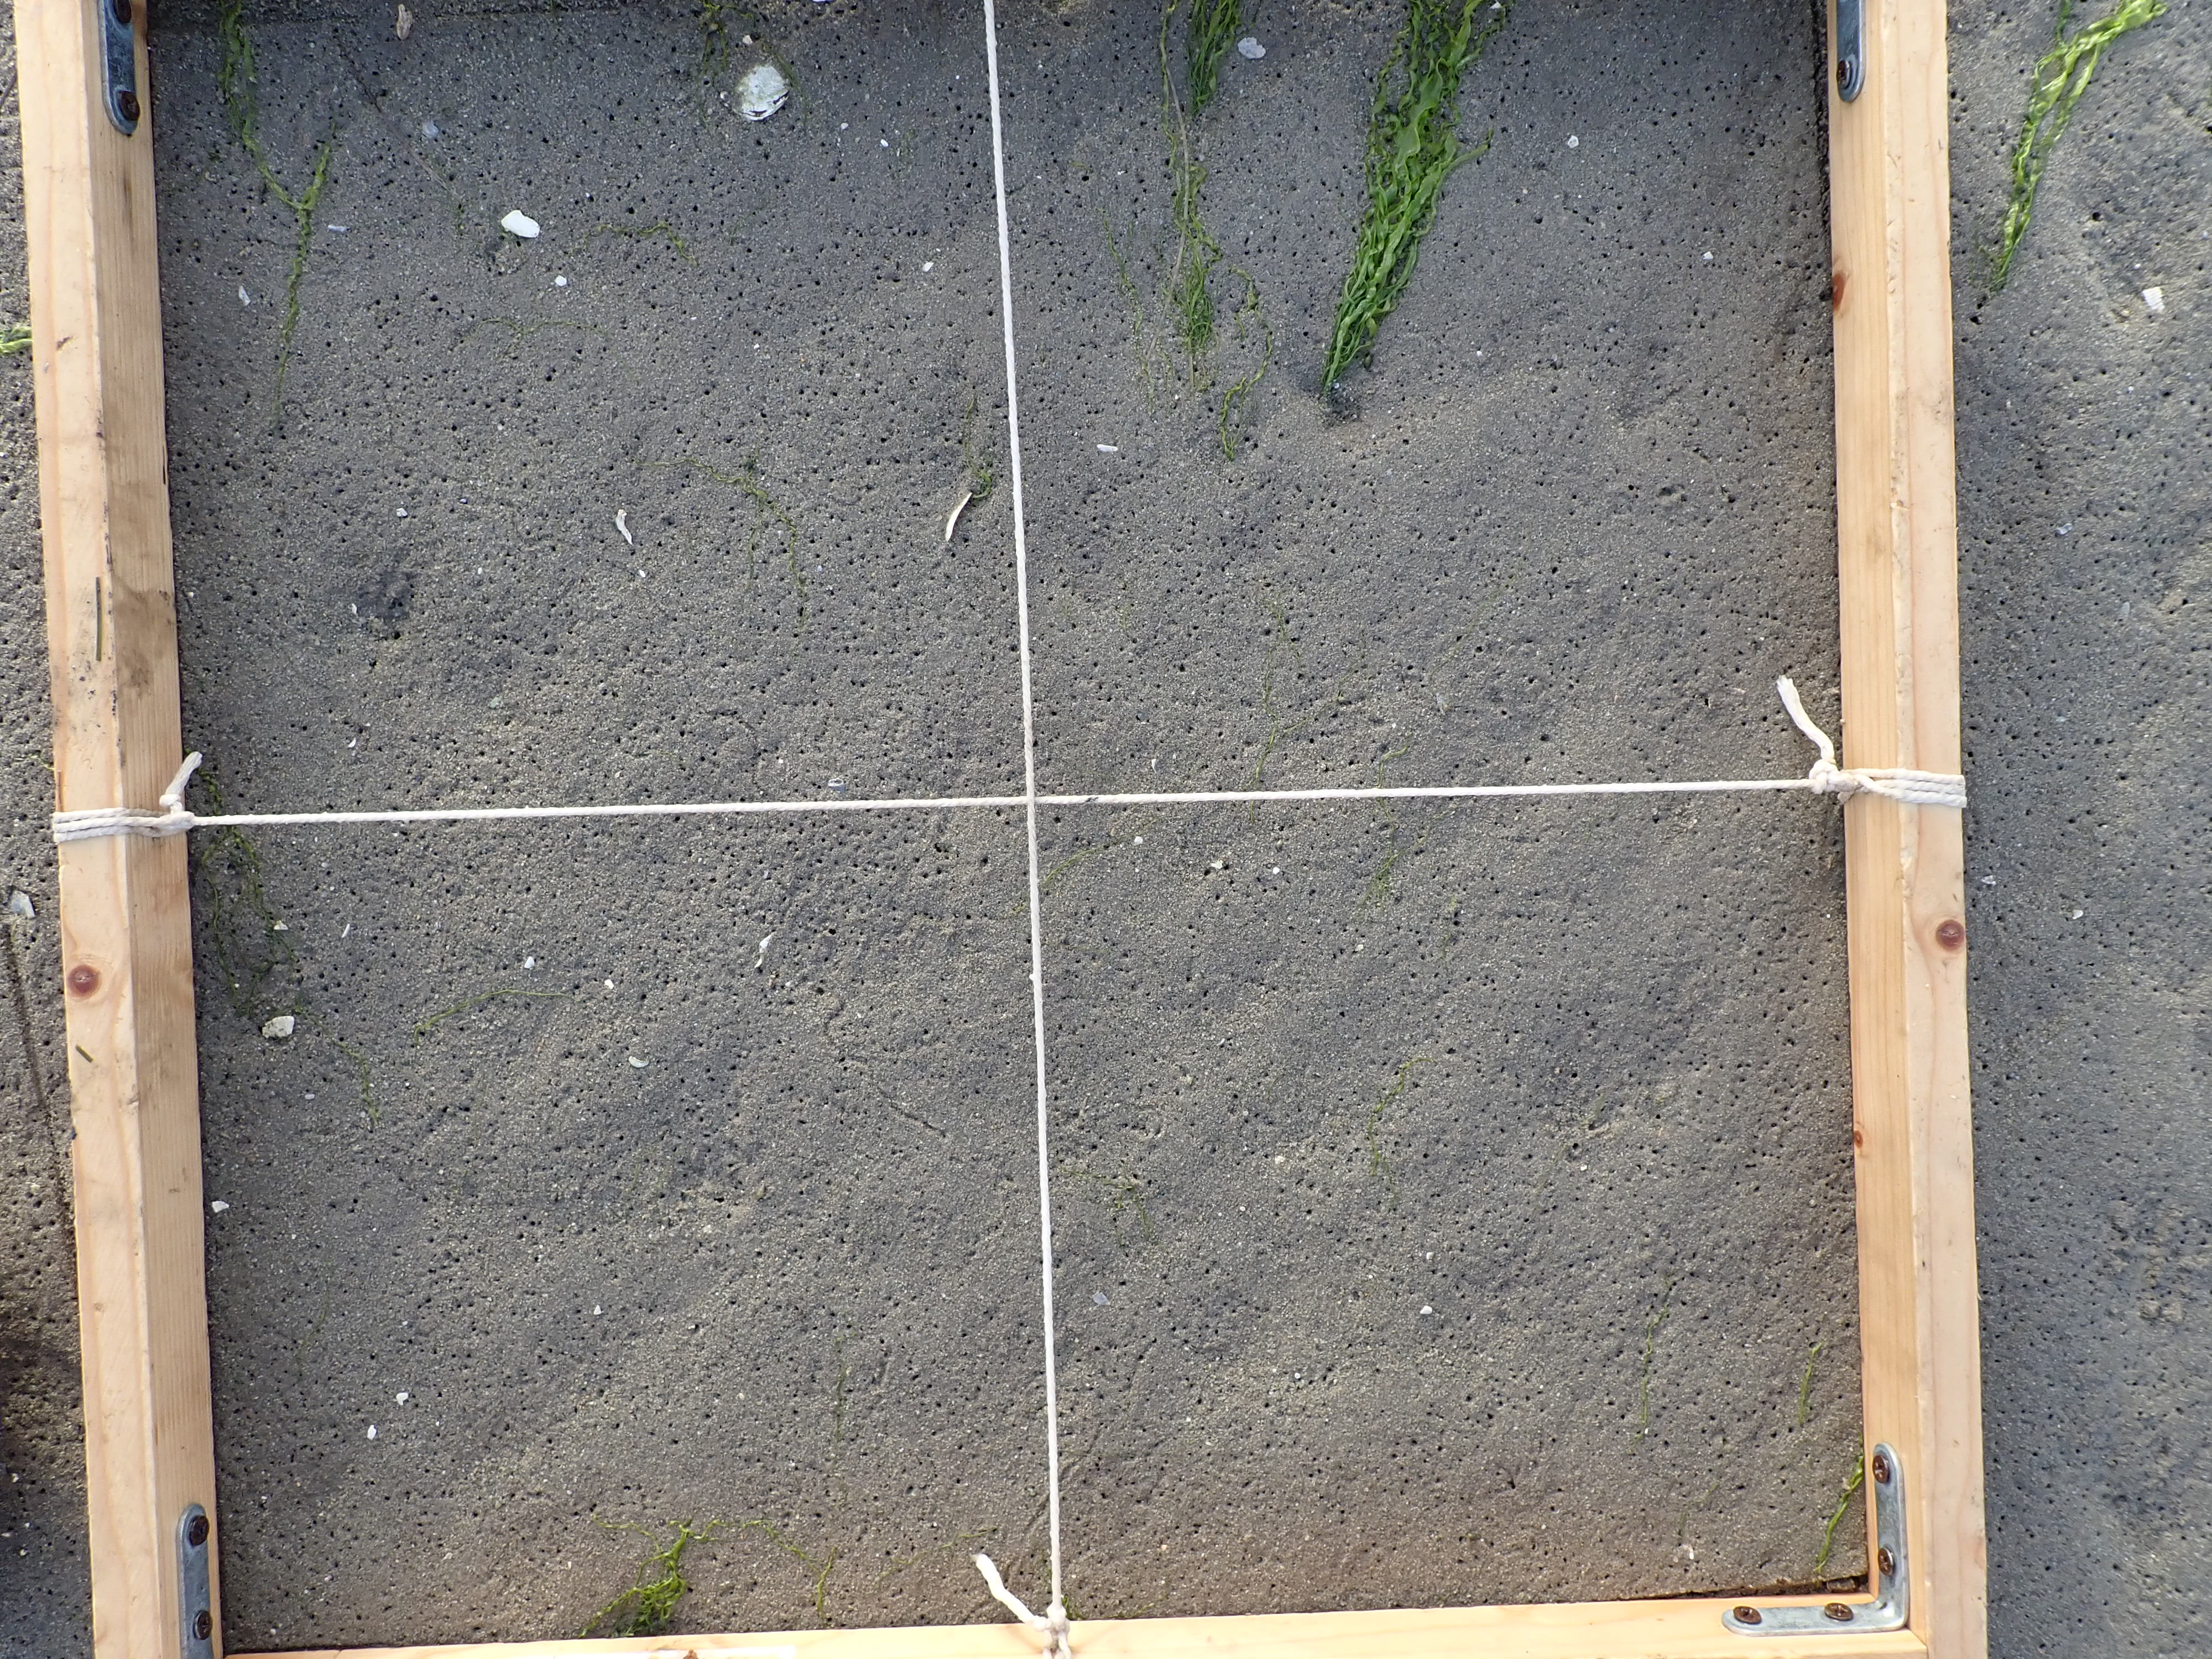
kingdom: Plantae
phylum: Chlorophyta
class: Ulvophyceae
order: Ulvales
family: Ulvaceae
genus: Ulva
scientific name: Ulva
